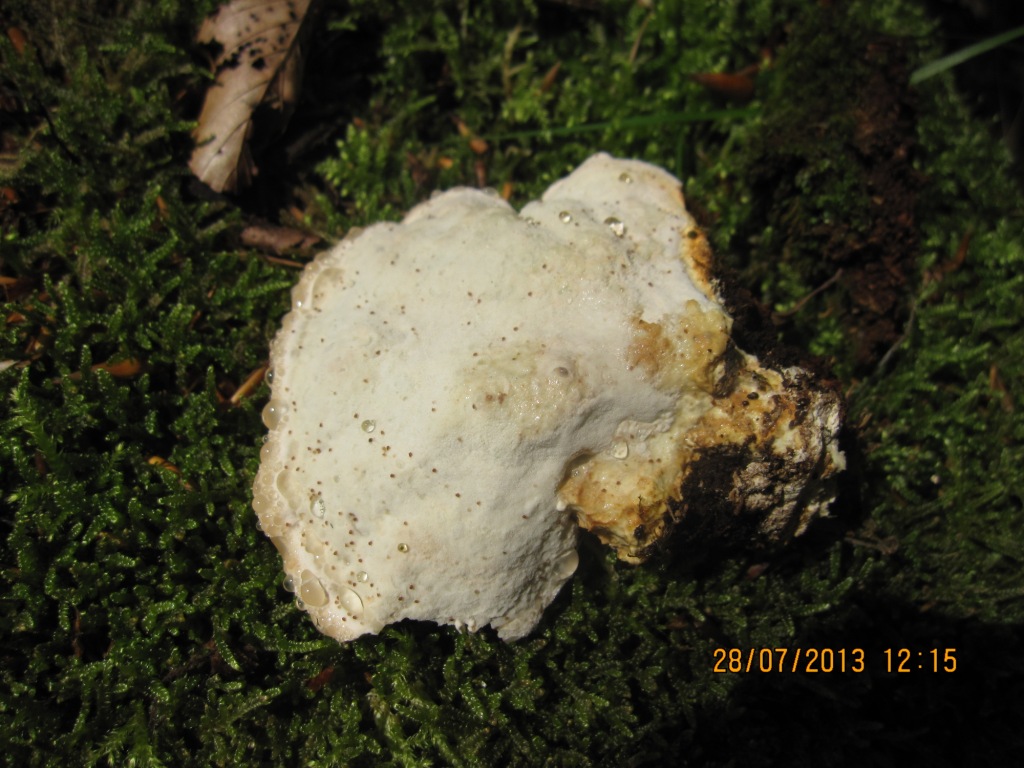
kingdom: Fungi
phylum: Basidiomycota
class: Agaricomycetes
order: Polyporales
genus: Calcipostia
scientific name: Calcipostia guttulata
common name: dråbe-kødporesvamp
